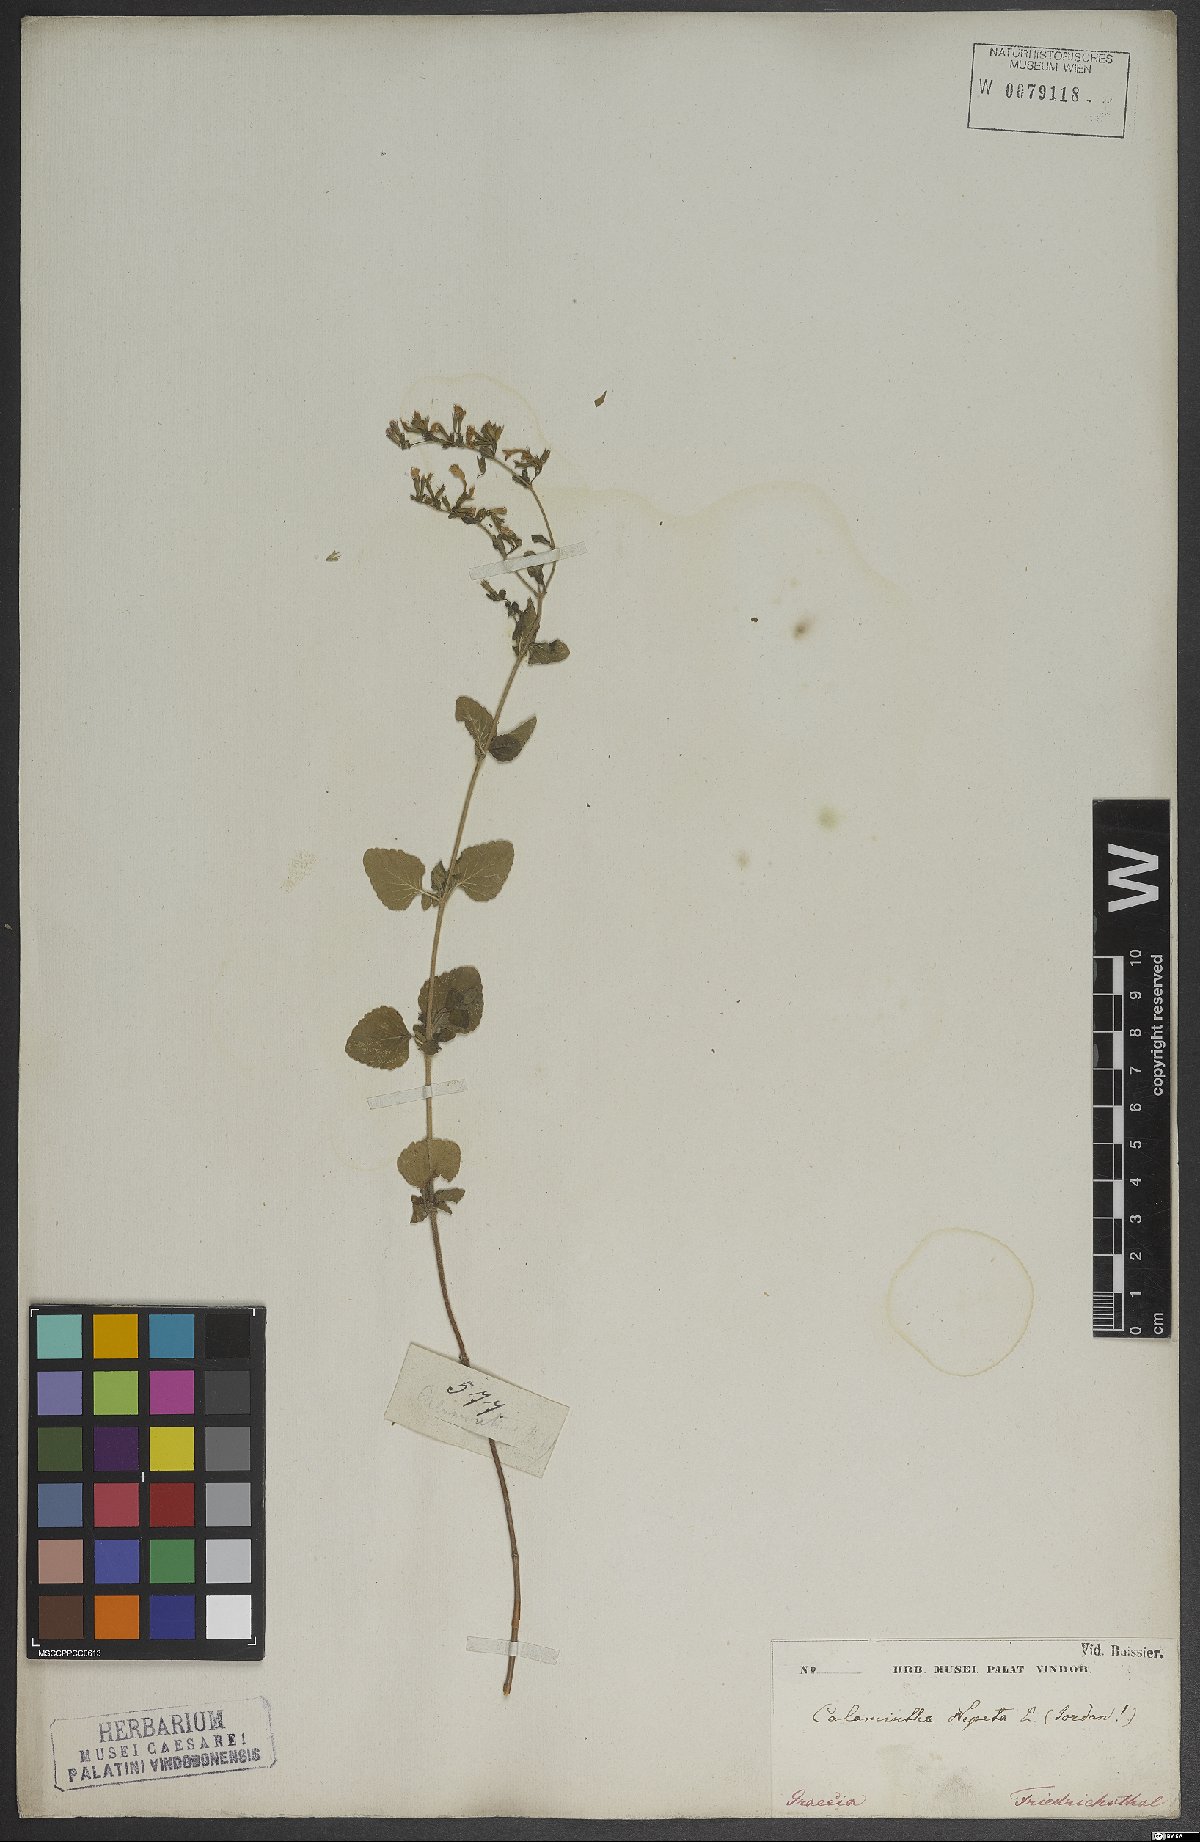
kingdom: Plantae
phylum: Tracheophyta
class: Magnoliopsida
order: Lamiales
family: Lamiaceae
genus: Clinopodium
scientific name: Clinopodium nepeta
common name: Lesser calamint
